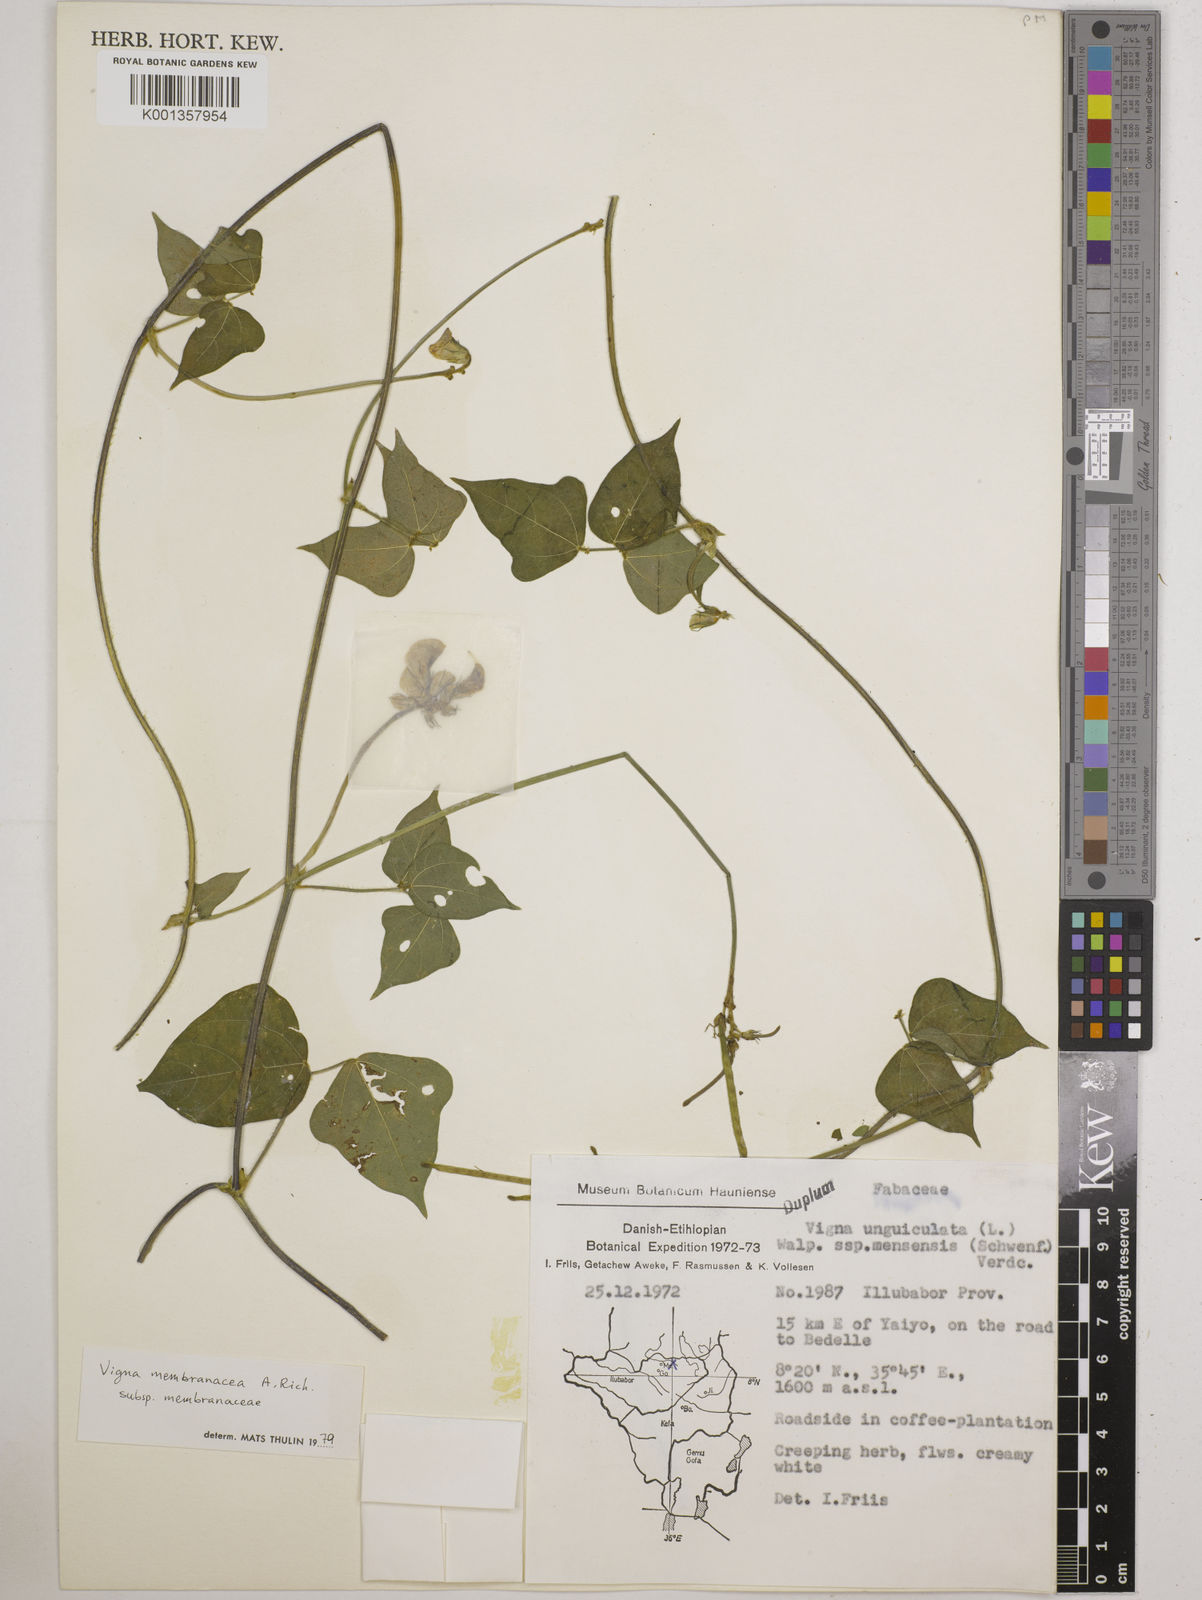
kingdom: Plantae
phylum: Tracheophyta
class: Magnoliopsida
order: Fabales
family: Fabaceae
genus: Vigna
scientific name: Vigna membranacea
